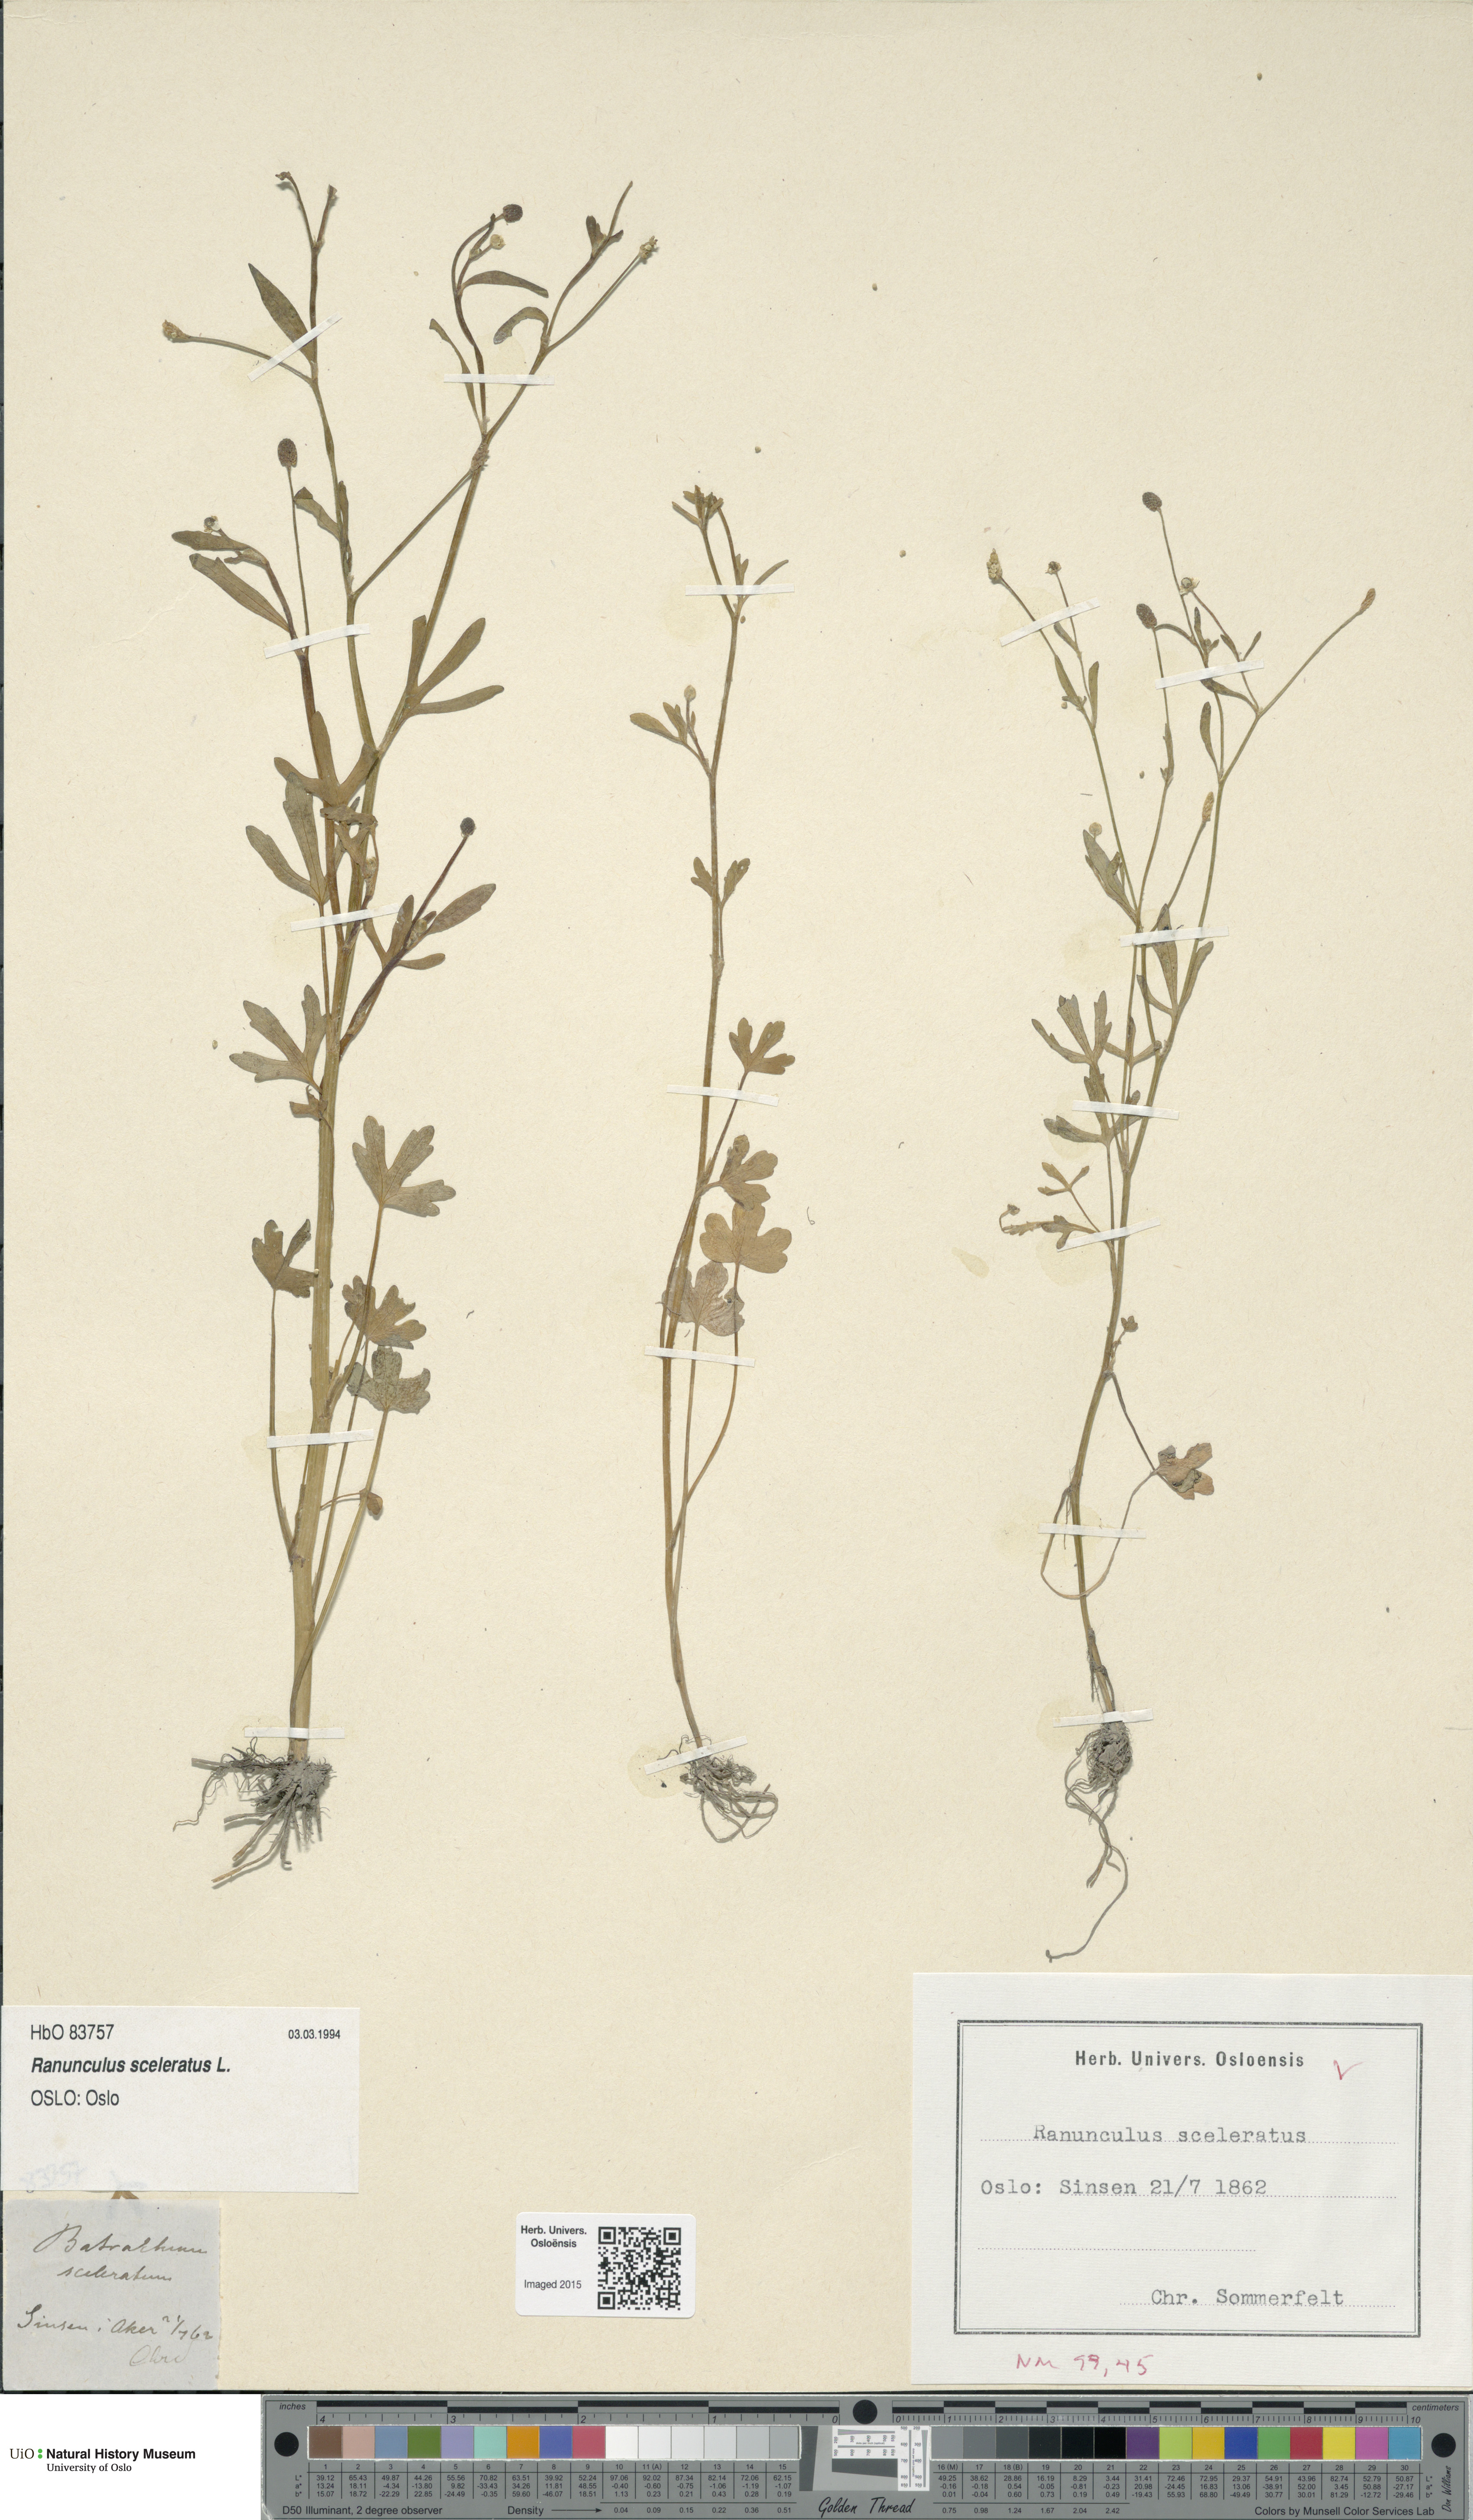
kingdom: Plantae
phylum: Tracheophyta
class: Magnoliopsida
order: Ranunculales
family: Ranunculaceae
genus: Ranunculus
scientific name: Ranunculus sceleratus
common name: Celery-leaved buttercup
